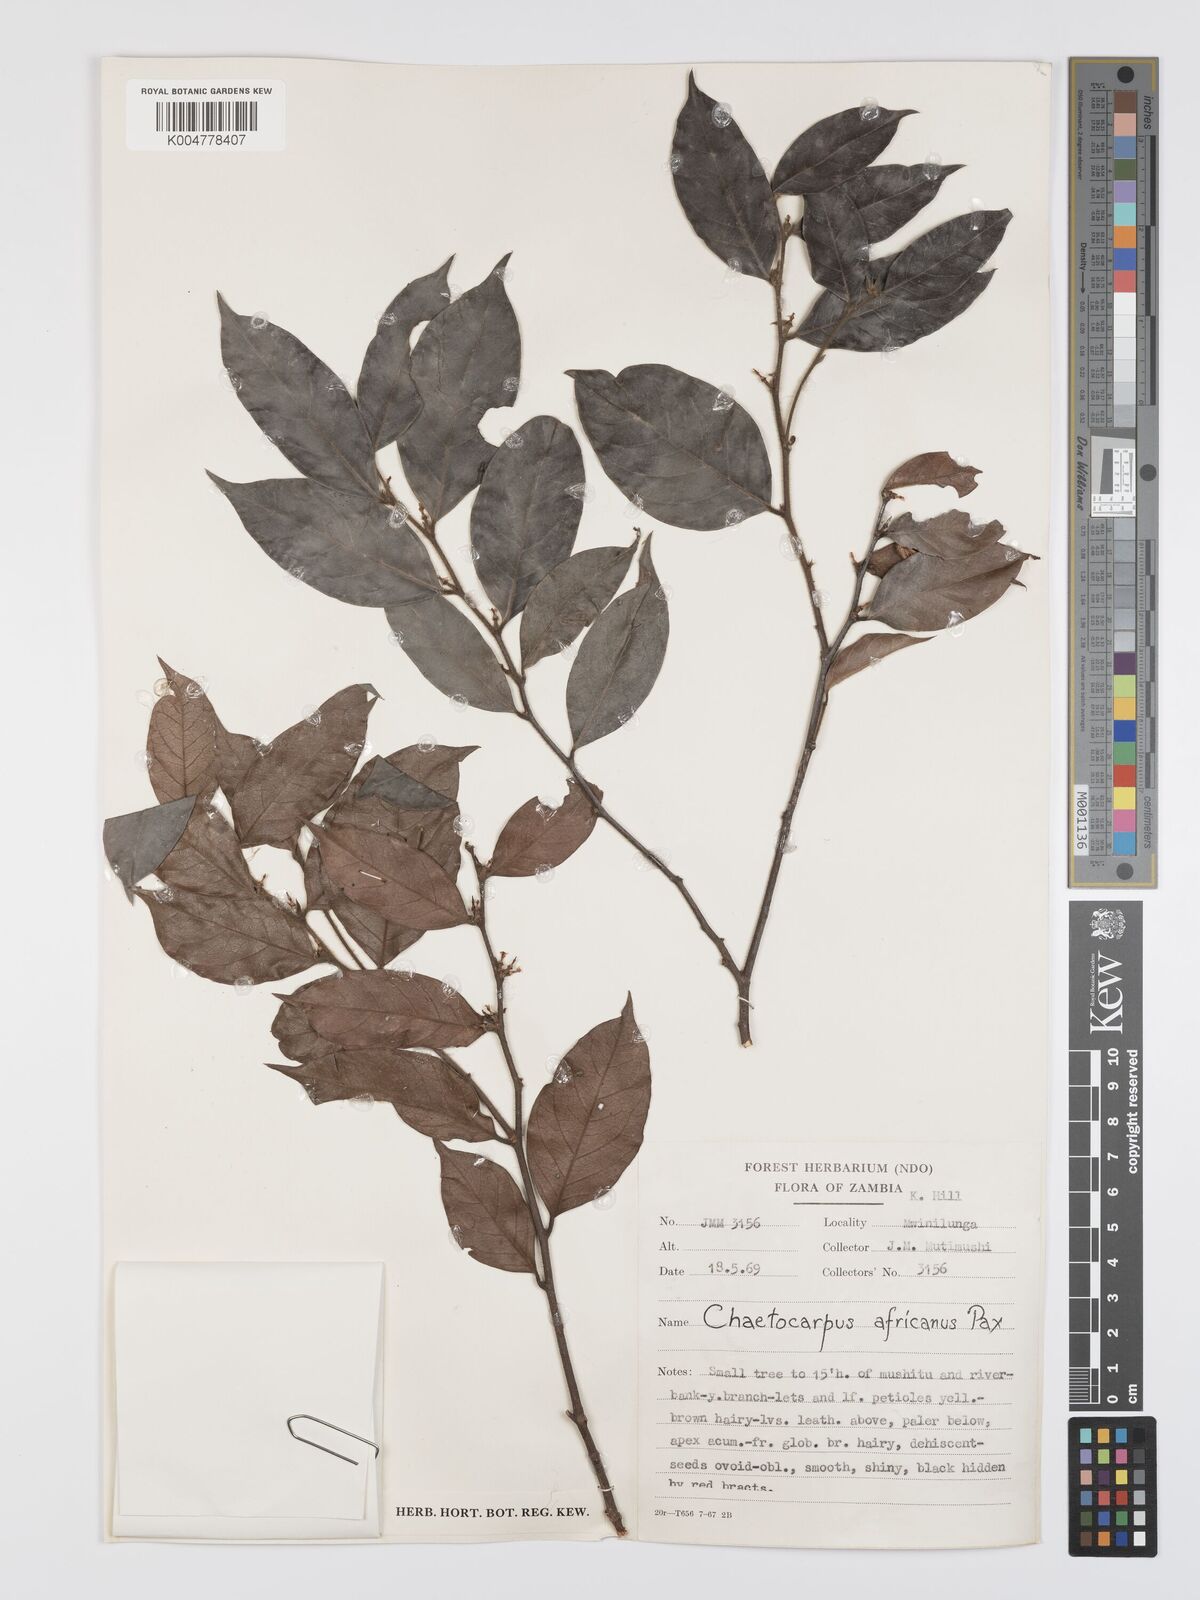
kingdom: Plantae
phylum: Tracheophyta
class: Magnoliopsida
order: Malpighiales
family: Peraceae
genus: Chaetocarpus
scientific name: Chaetocarpus africanus
